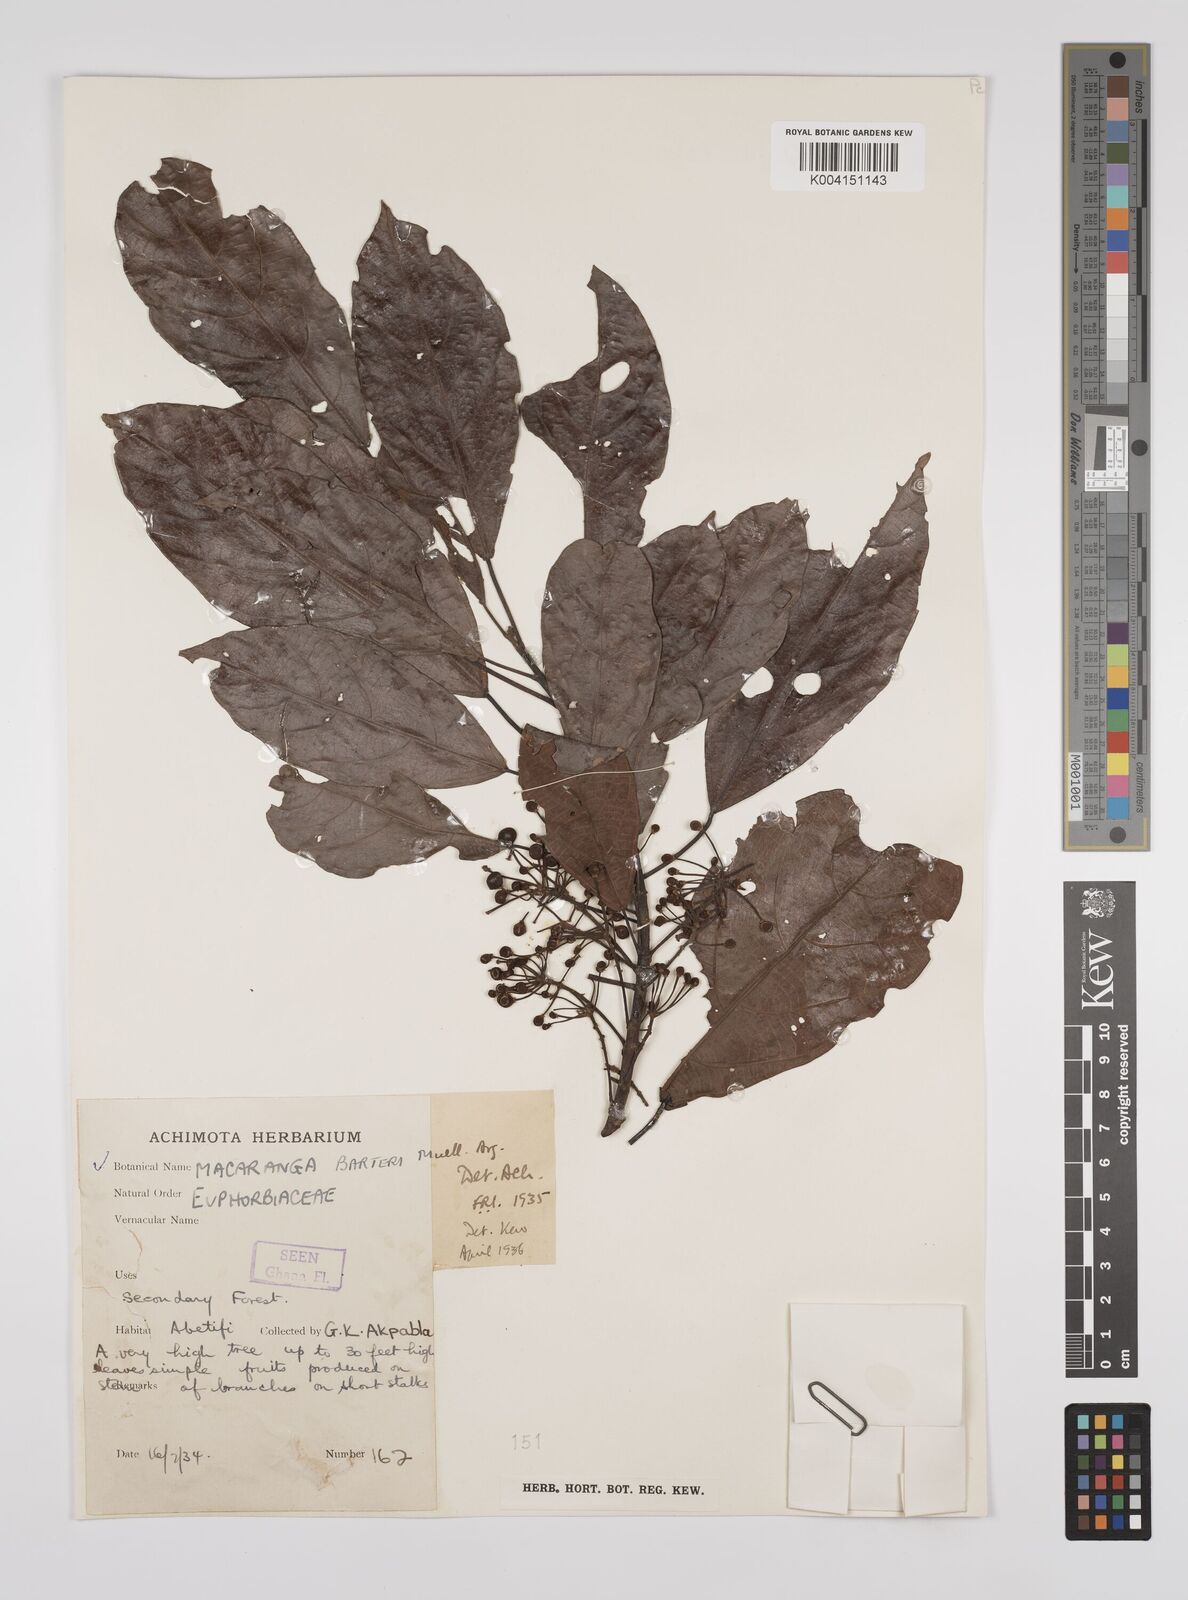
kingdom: Plantae
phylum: Tracheophyta
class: Magnoliopsida
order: Malpighiales
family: Euphorbiaceae
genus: Macaranga
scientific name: Macaranga barteri
